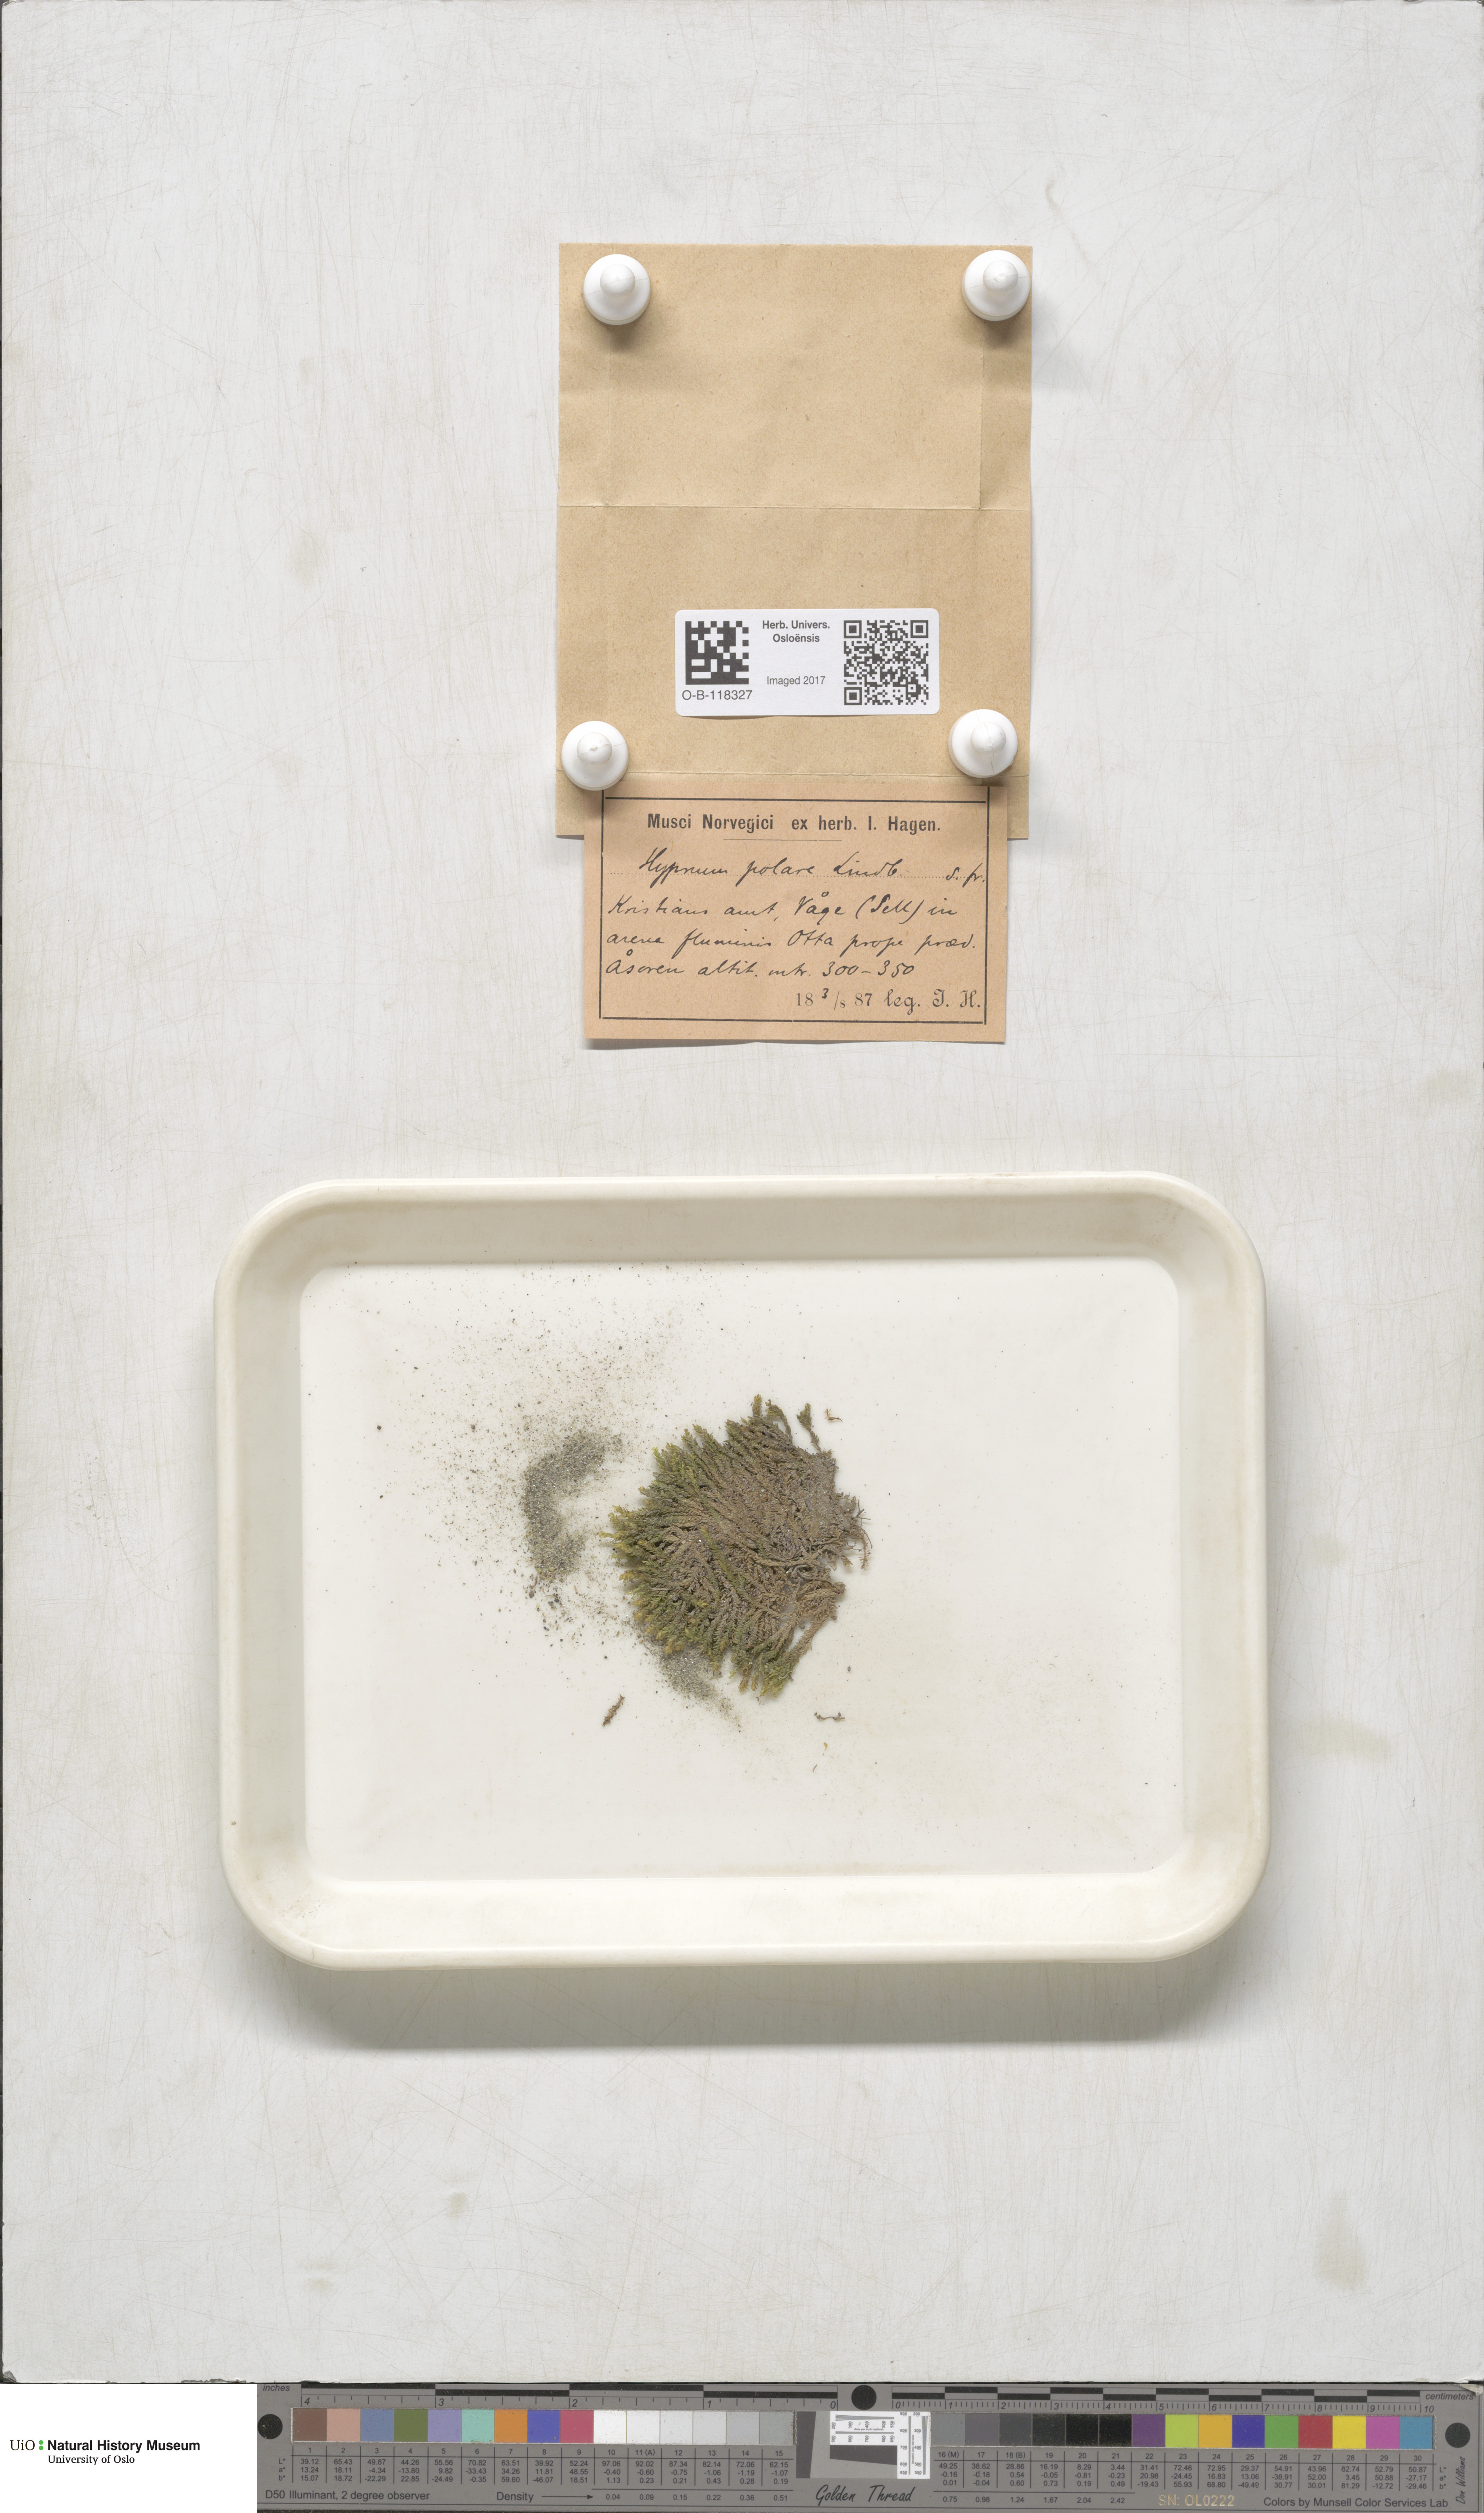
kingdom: Plantae
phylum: Bryophyta
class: Bryopsida
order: Hypnales
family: Scorpidiaceae
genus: Hygrohypnella
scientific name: Hygrohypnella polaris
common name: Polar brook-moss
